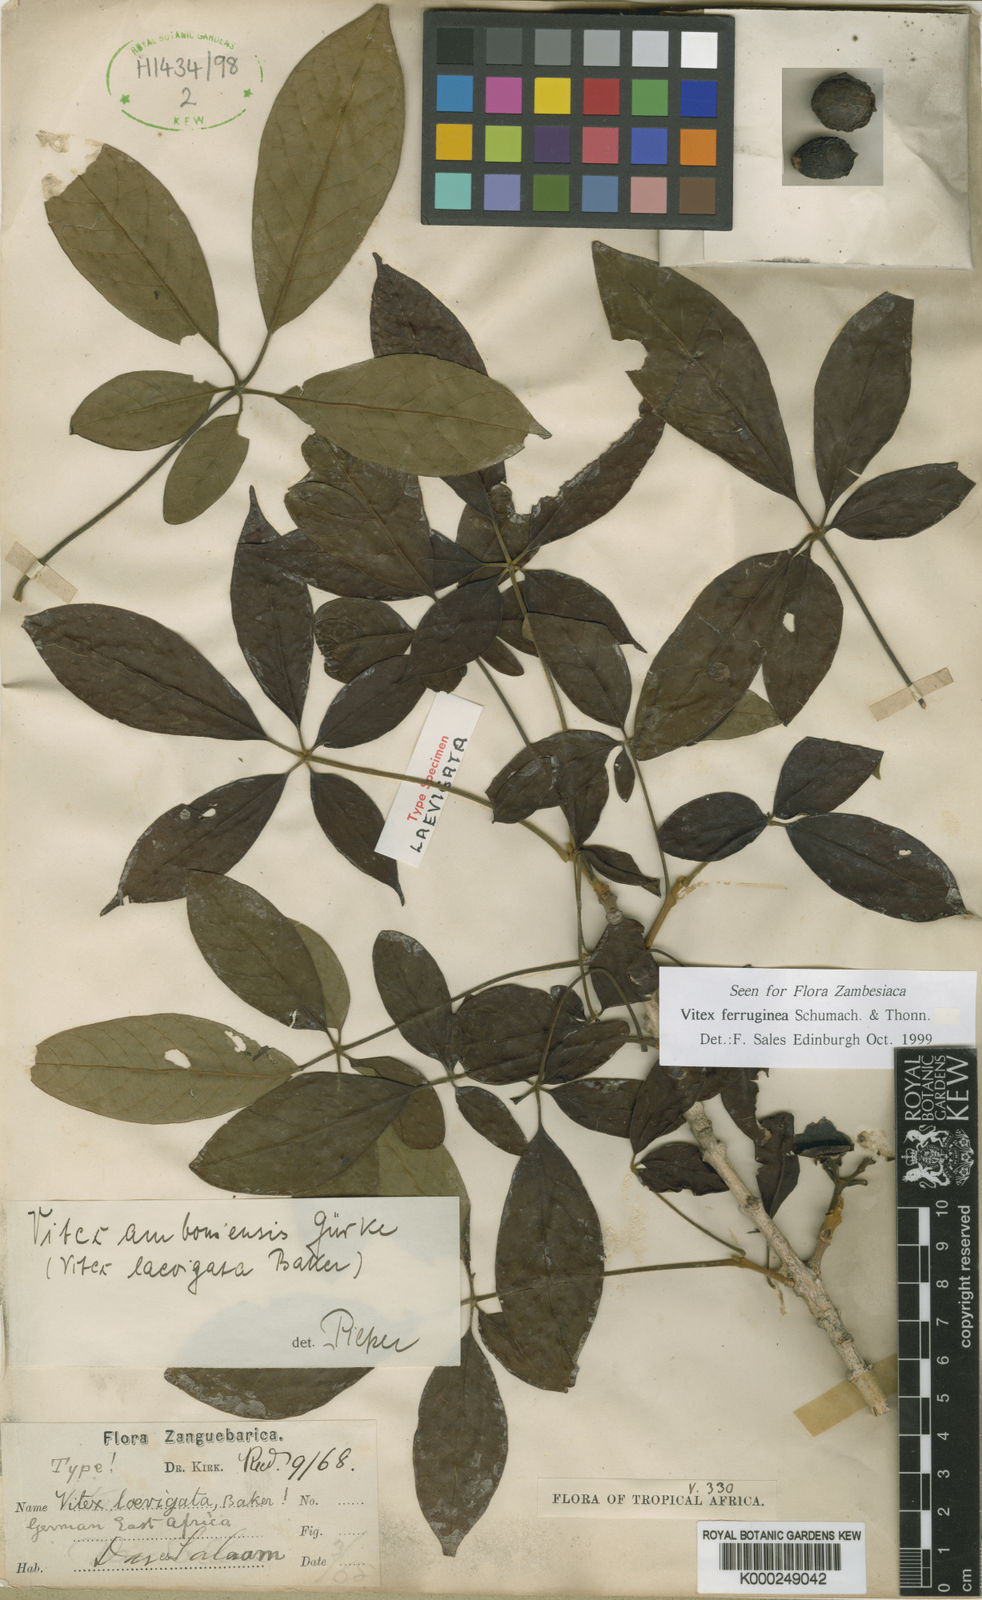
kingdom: Plantae
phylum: Tracheophyta
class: Magnoliopsida
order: Lamiales
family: Lamiaceae
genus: Vitex
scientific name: Vitex ferruginea
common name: Plum fingerleaf
